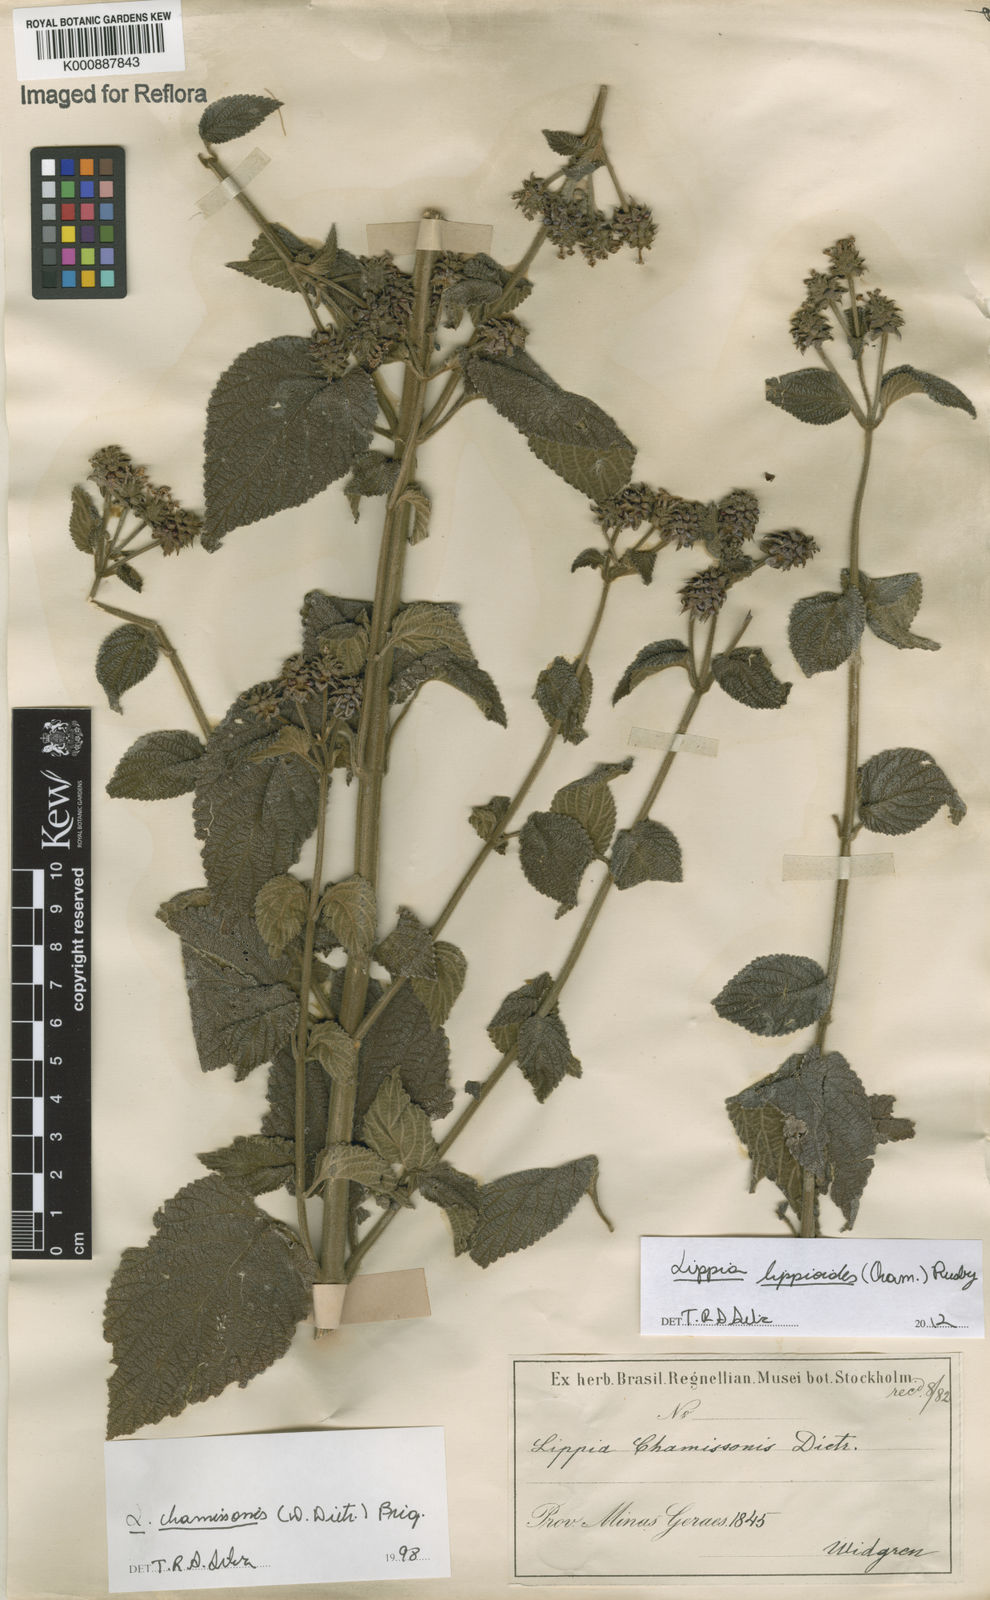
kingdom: Plantae
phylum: Tracheophyta
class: Magnoliopsida
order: Lamiales
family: Verbenaceae
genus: Lippia
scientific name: Lippia lippioides
